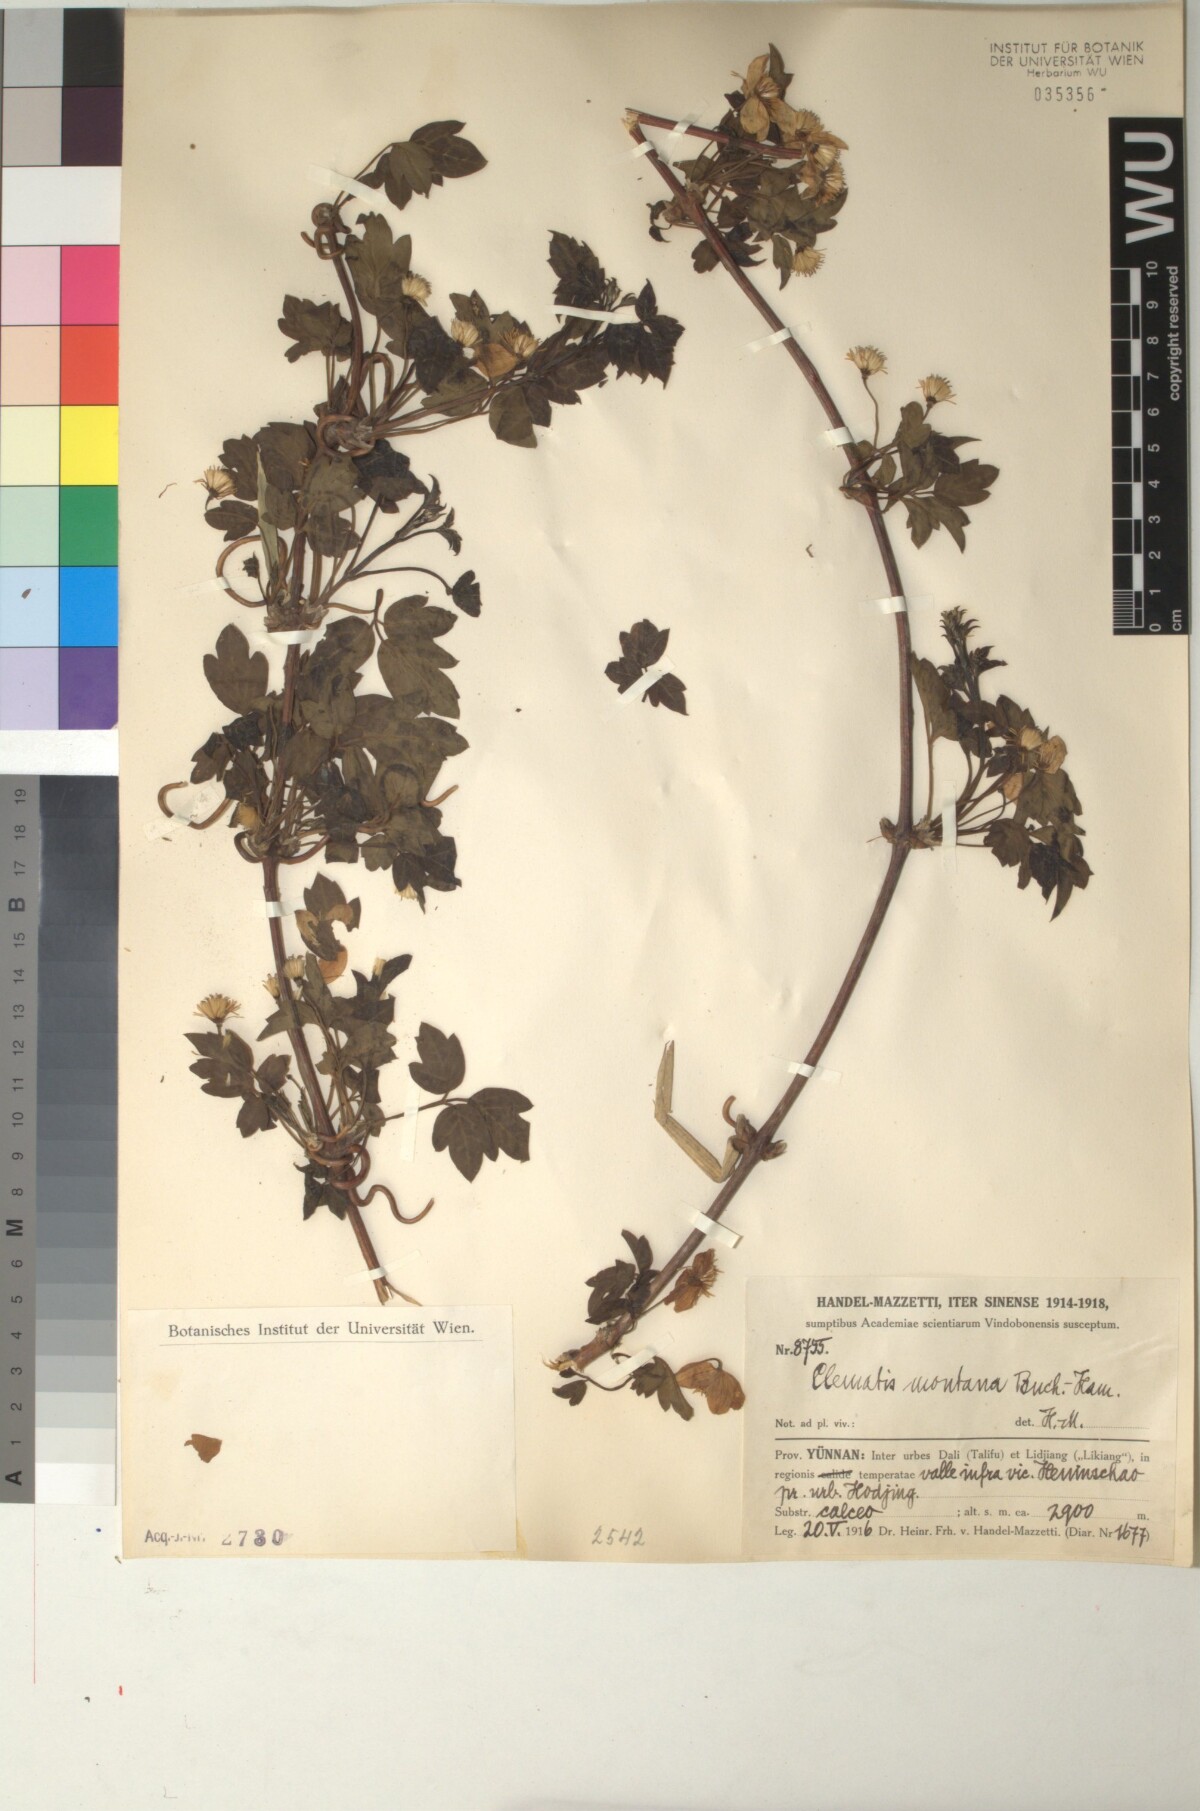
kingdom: Plantae
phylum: Tracheophyta
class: Magnoliopsida
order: Ranunculales
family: Ranunculaceae
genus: Clematis
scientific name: Clematis montana
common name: Himalayan clematis
